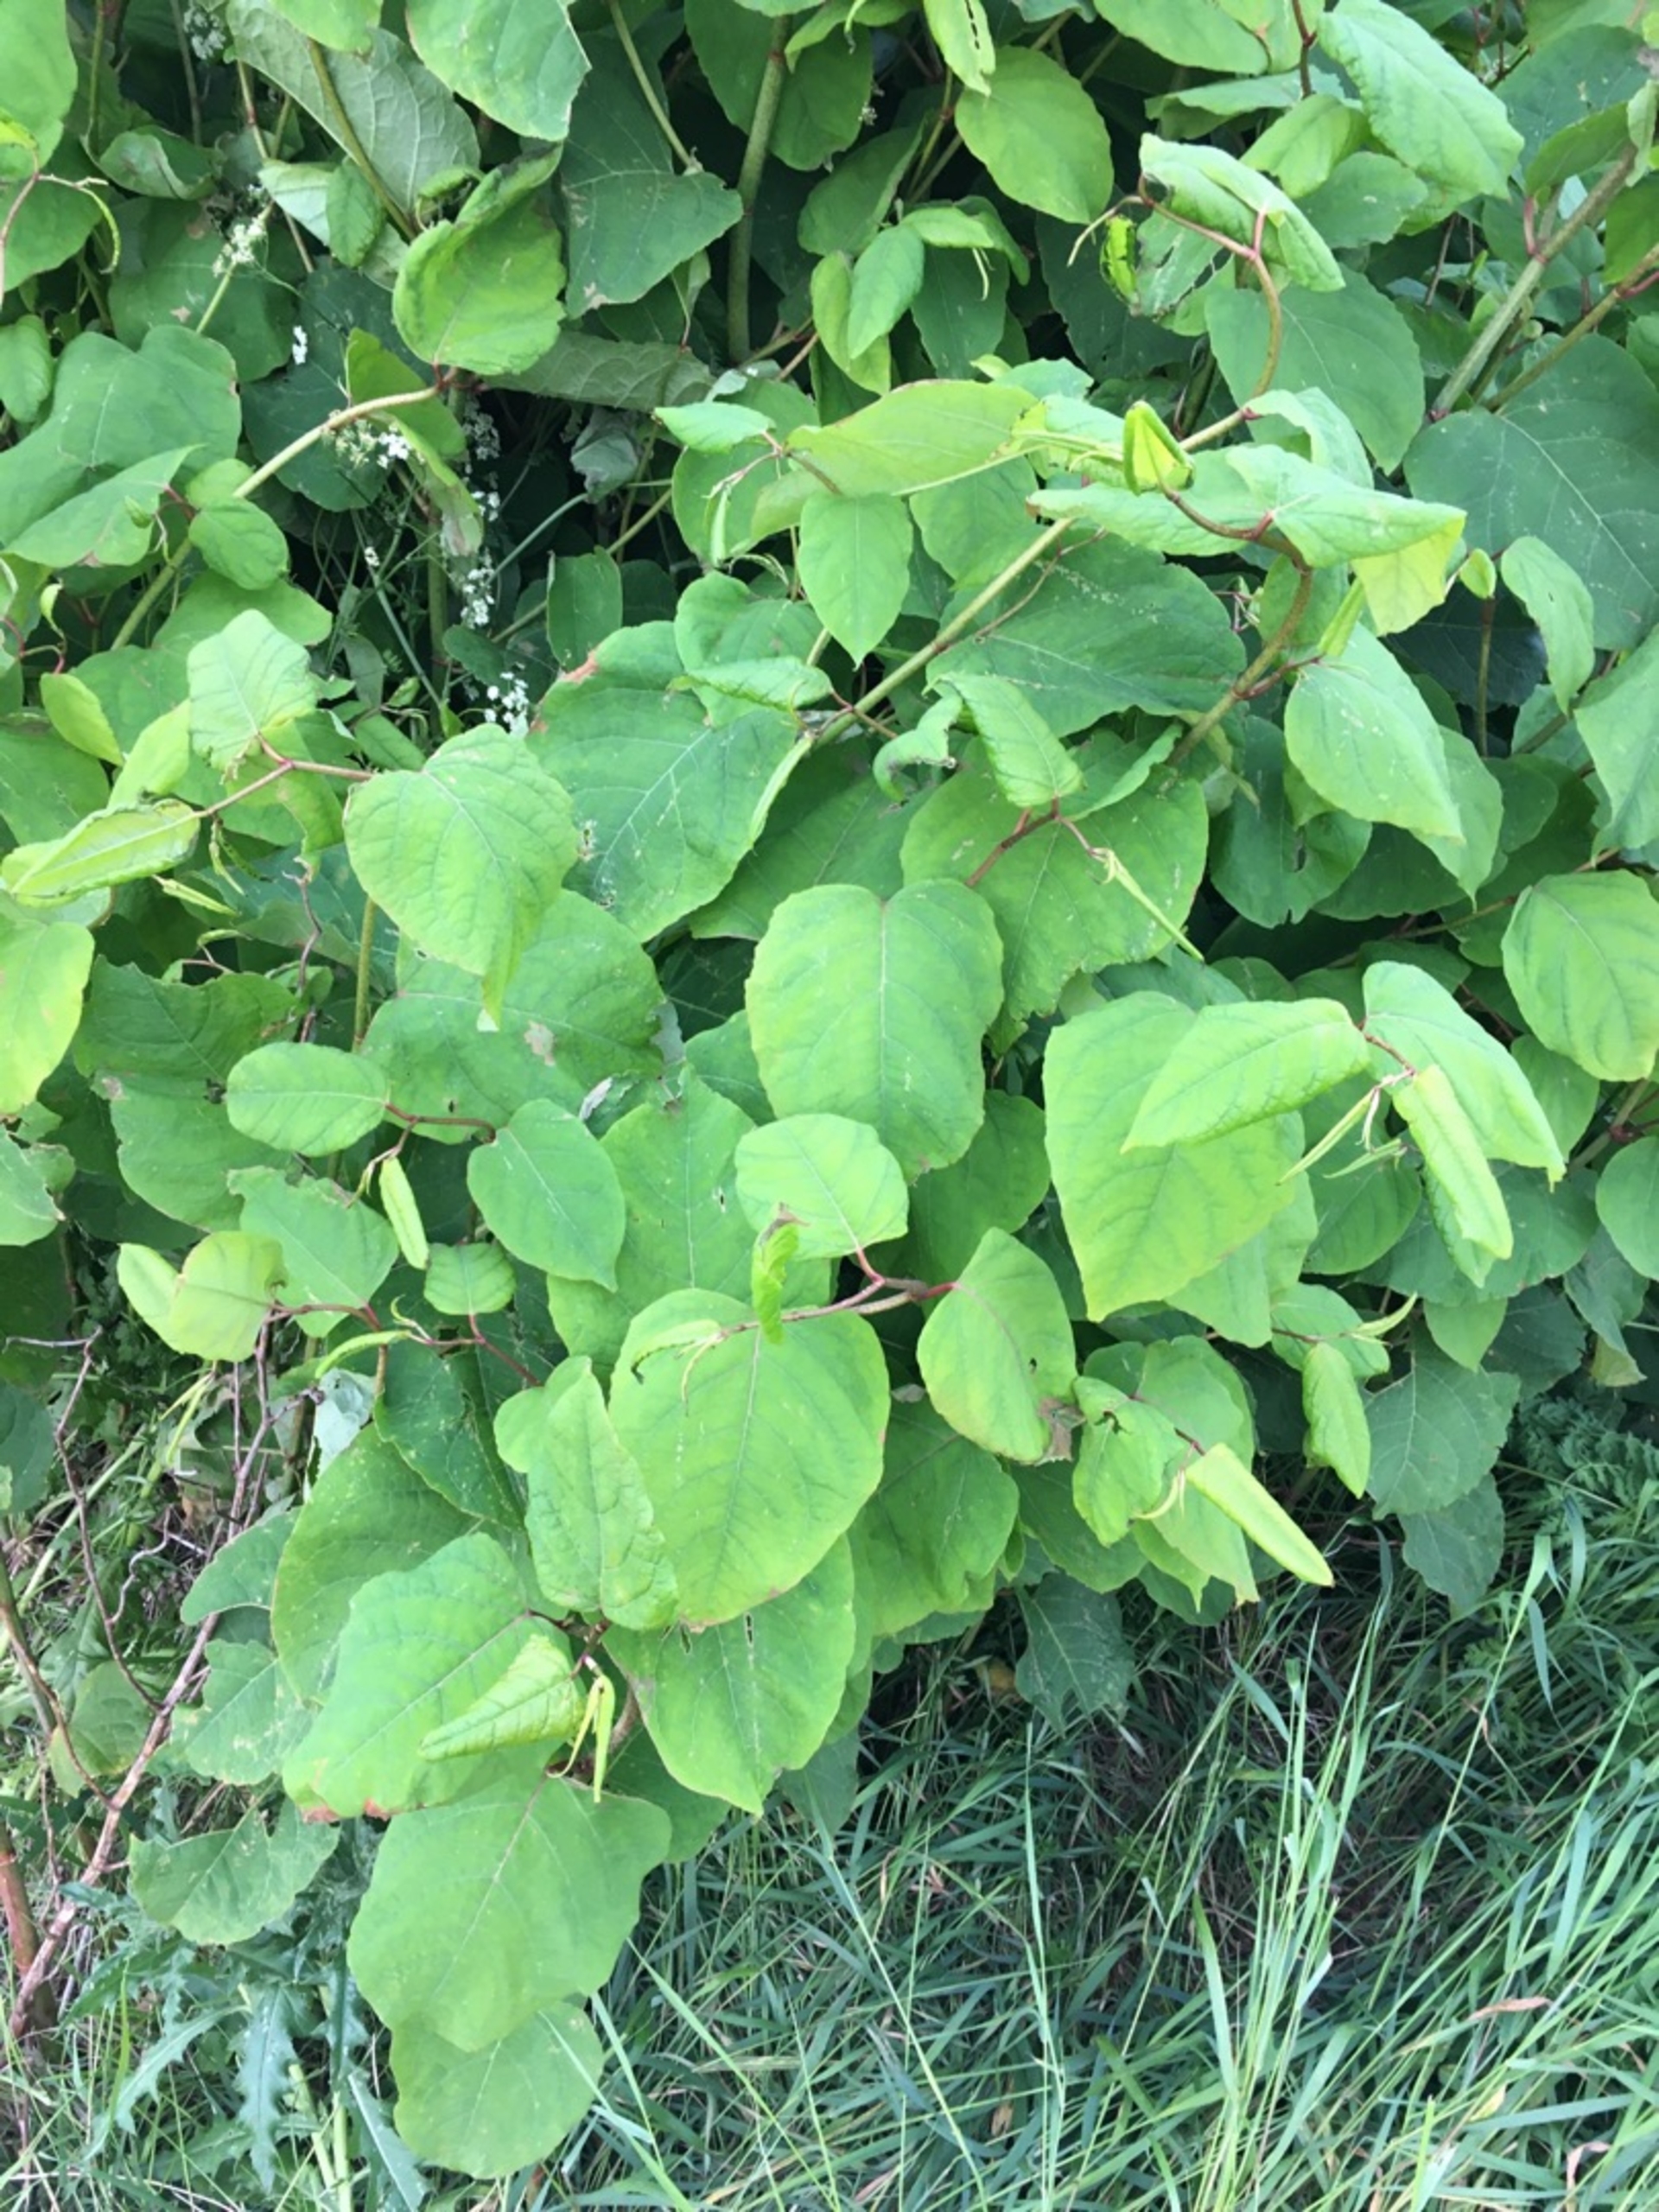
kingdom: Plantae
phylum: Tracheophyta
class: Magnoliopsida
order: Caryophyllales
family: Polygonaceae
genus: Reynoutria
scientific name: Reynoutria japonica
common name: Japan-pileurt
